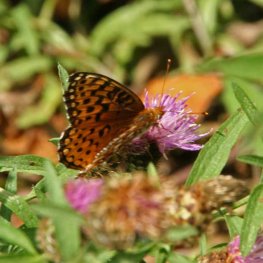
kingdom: Animalia
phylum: Arthropoda
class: Insecta
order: Lepidoptera
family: Nymphalidae
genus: Speyeria
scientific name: Speyeria atlantis
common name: Atlantis Fritillary
